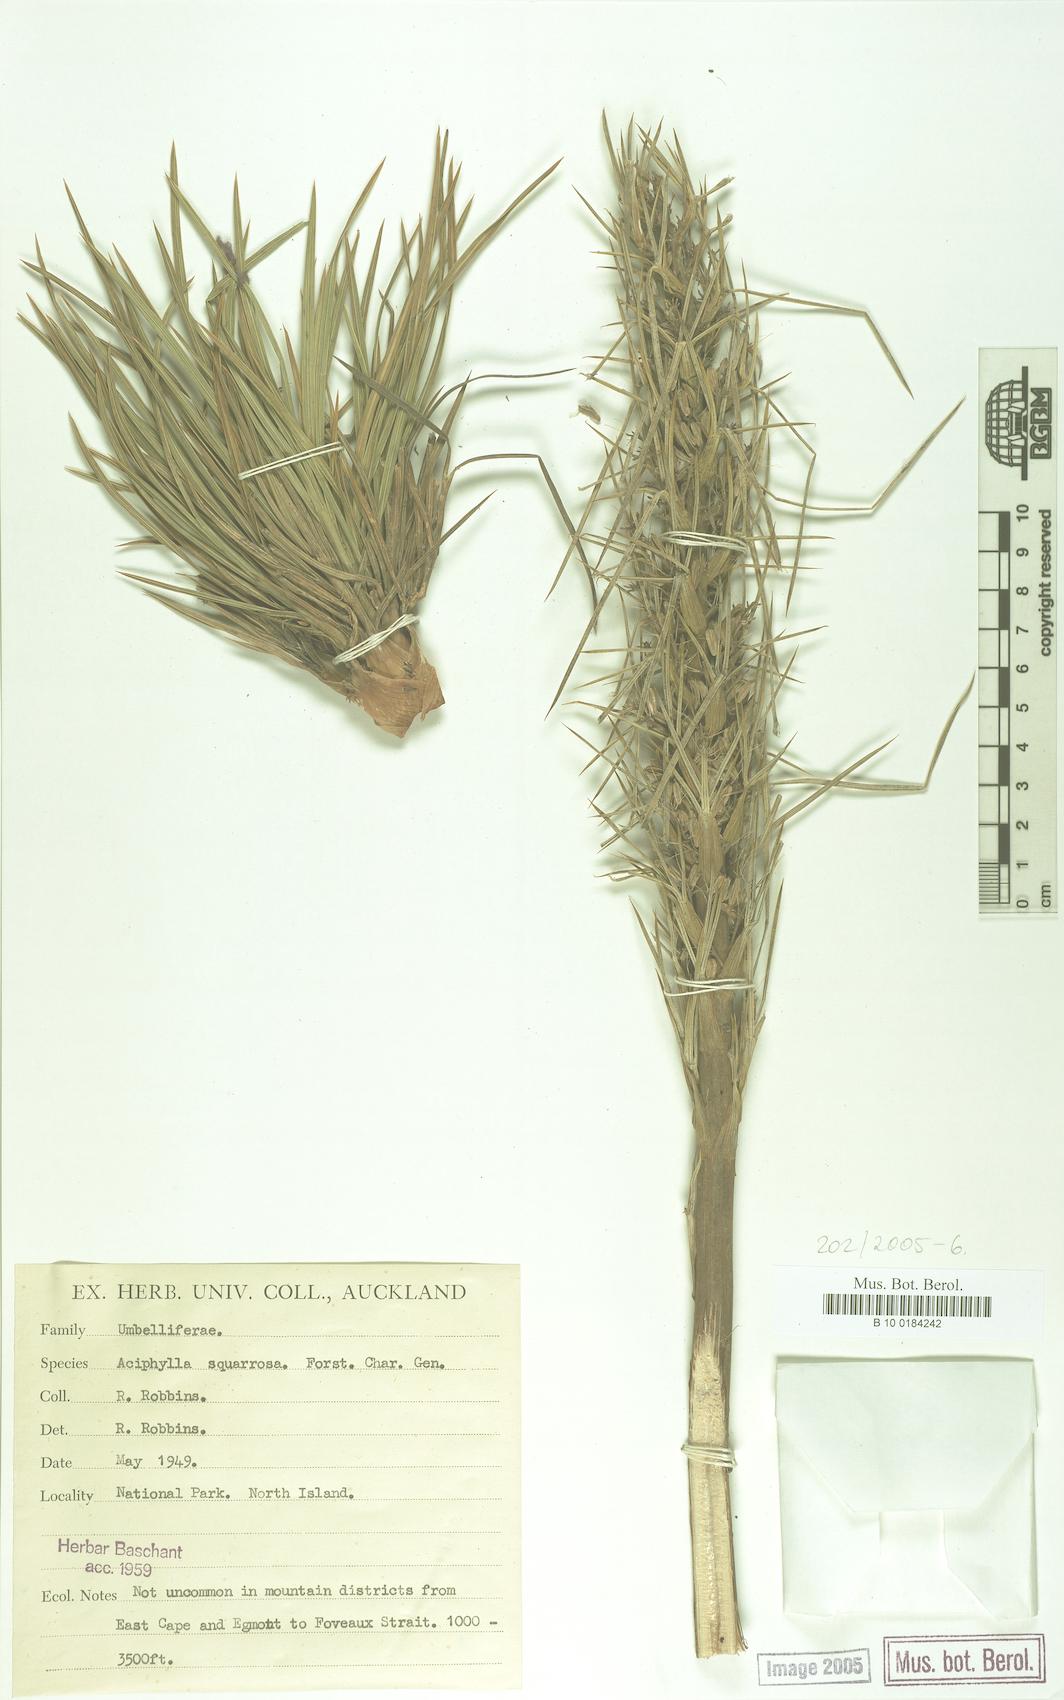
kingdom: Plantae
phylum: Tracheophyta
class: Magnoliopsida
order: Apiales
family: Apiaceae
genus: Aciphylla
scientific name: Aciphylla squarrosa
